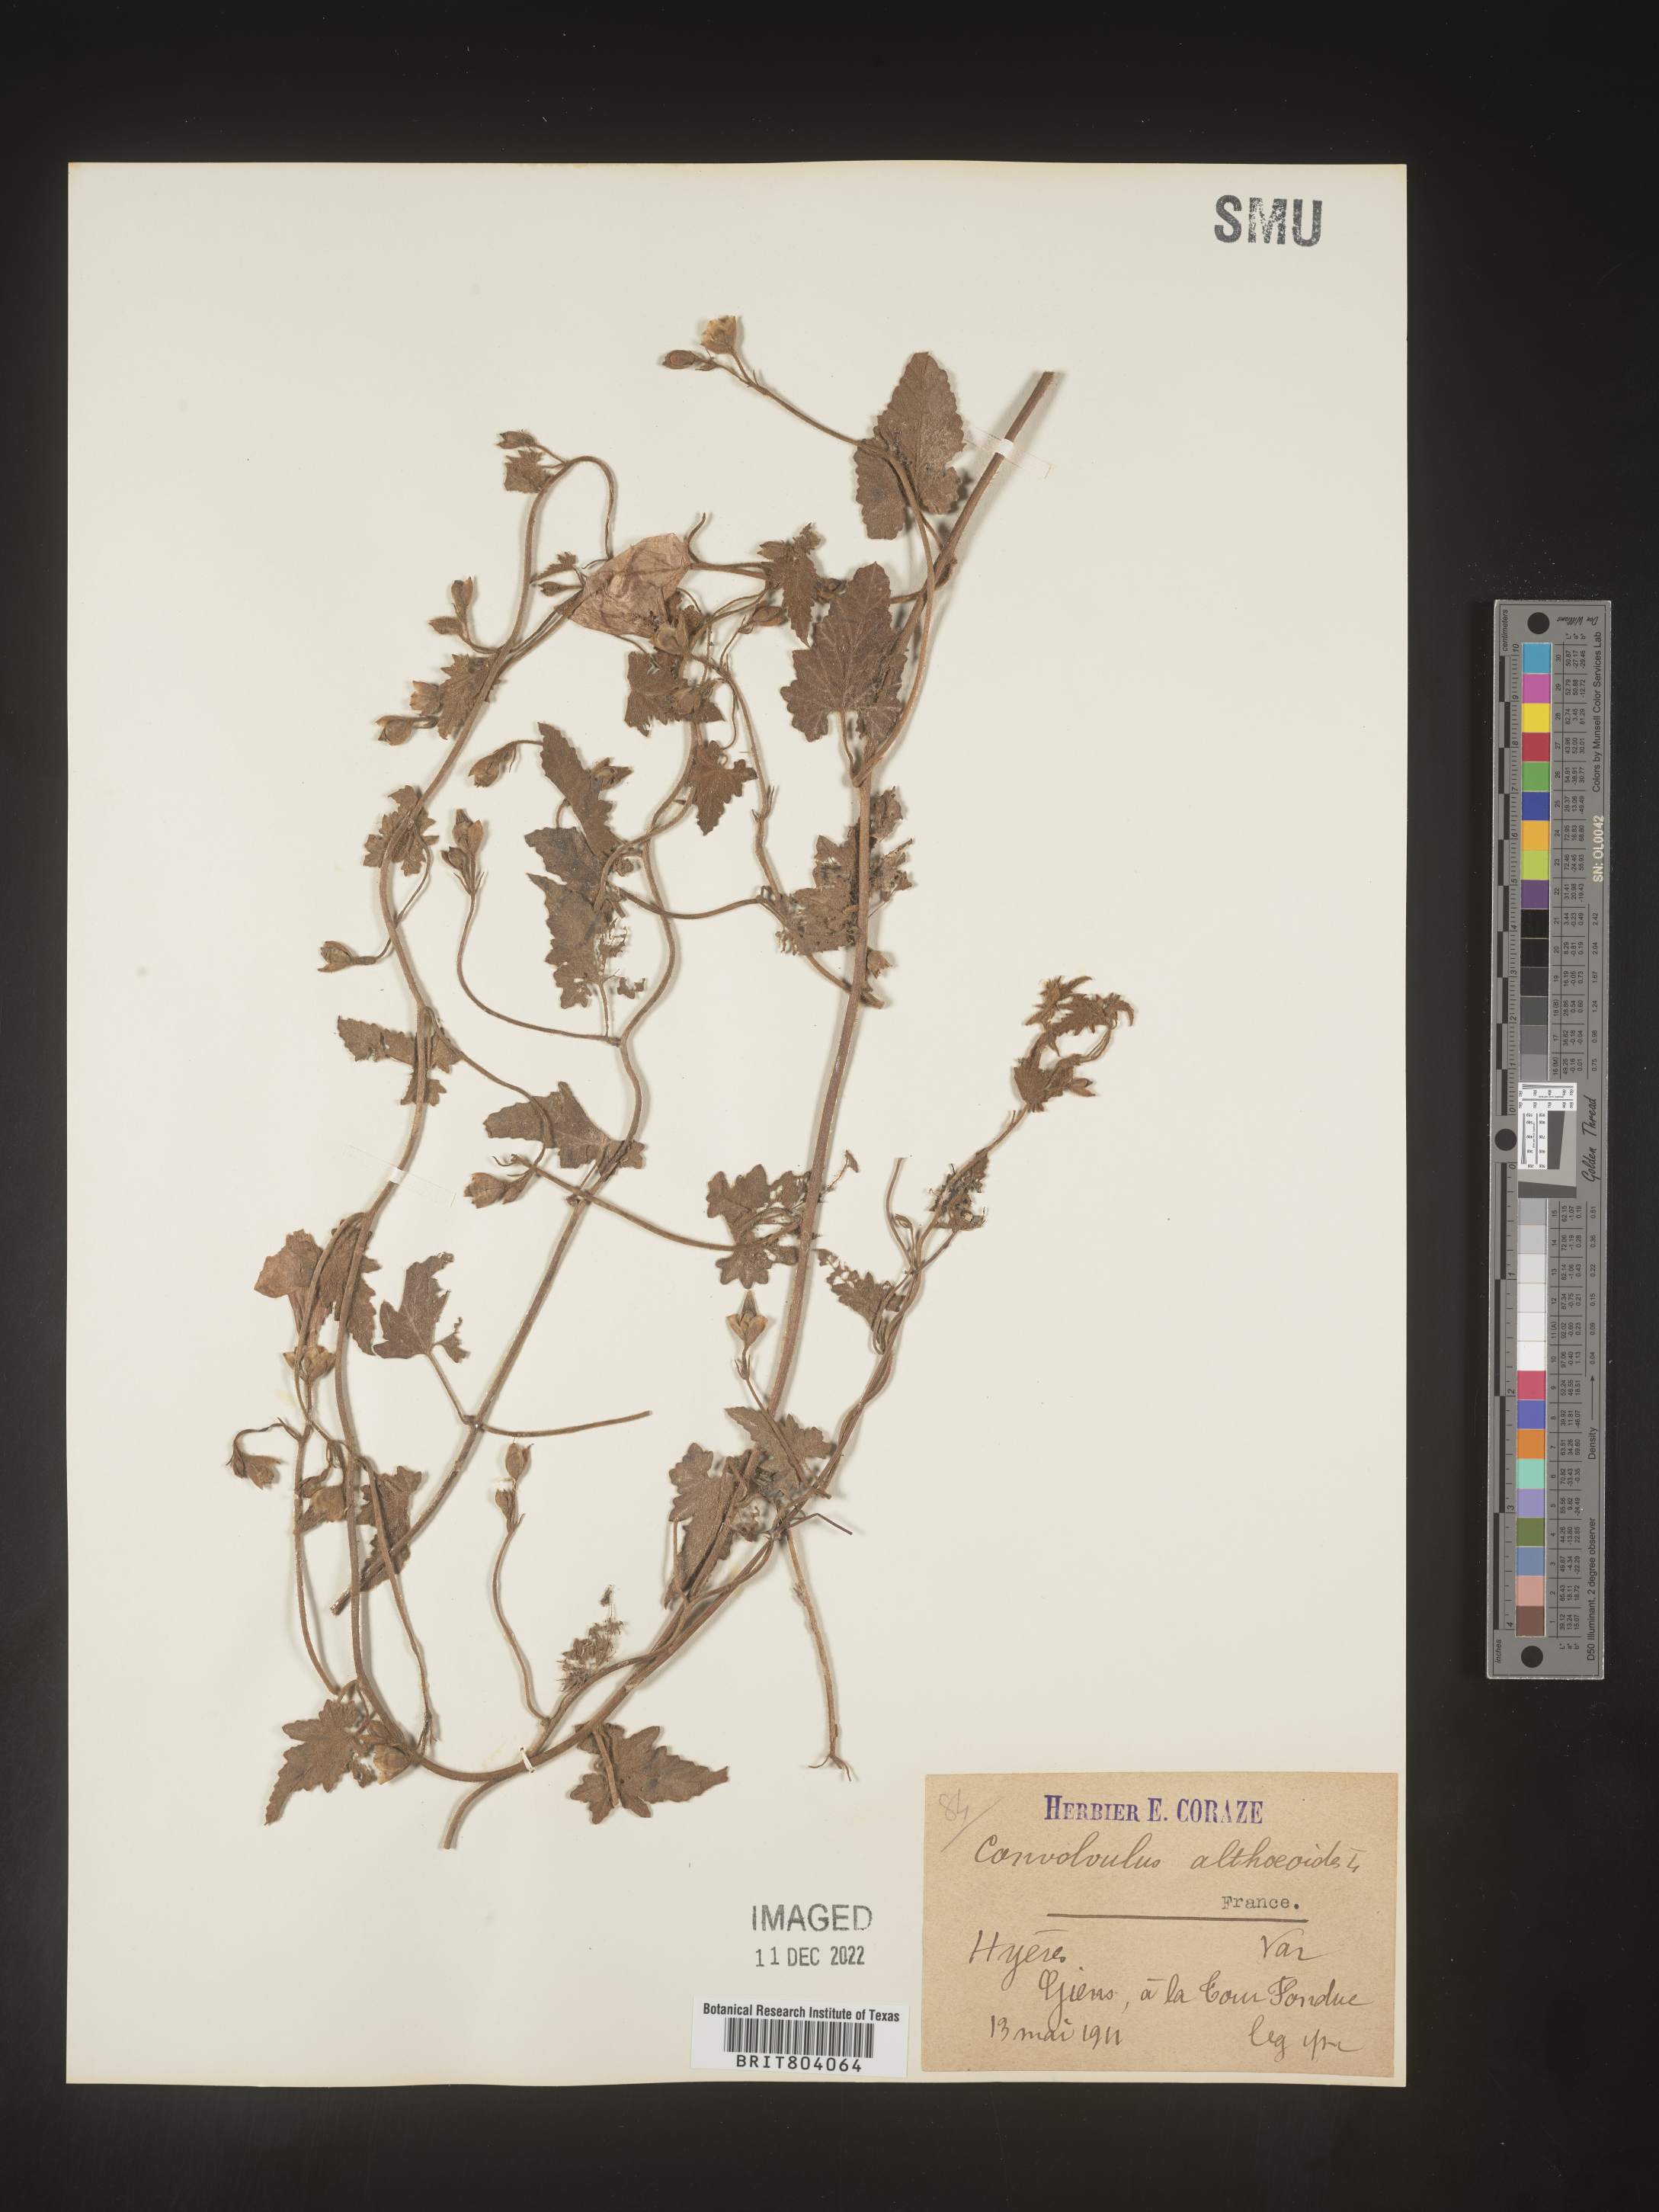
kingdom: Plantae
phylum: Tracheophyta
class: Magnoliopsida
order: Solanales
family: Convolvulaceae
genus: Convolvulus
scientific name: Convolvulus
